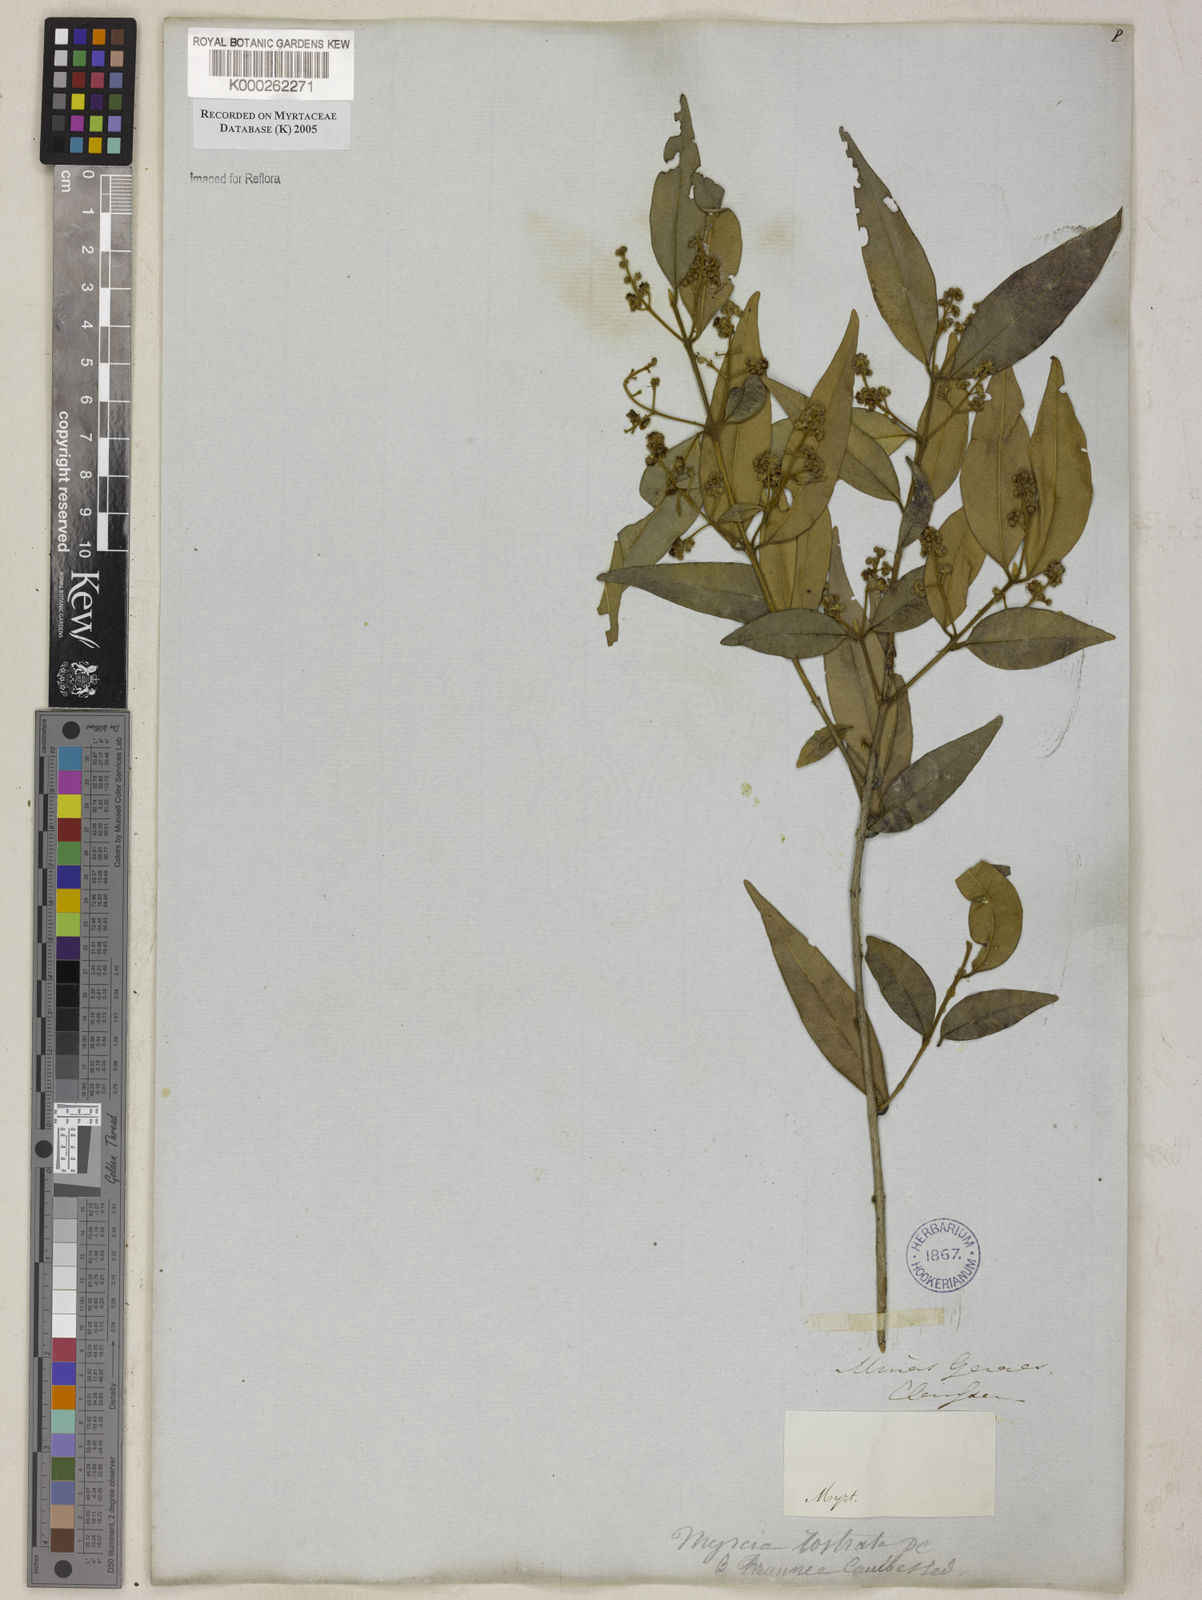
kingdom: Plantae
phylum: Tracheophyta
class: Magnoliopsida
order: Myrtales
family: Myrtaceae
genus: Myrcia
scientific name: Myrcia splendens
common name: Surinam cherry
